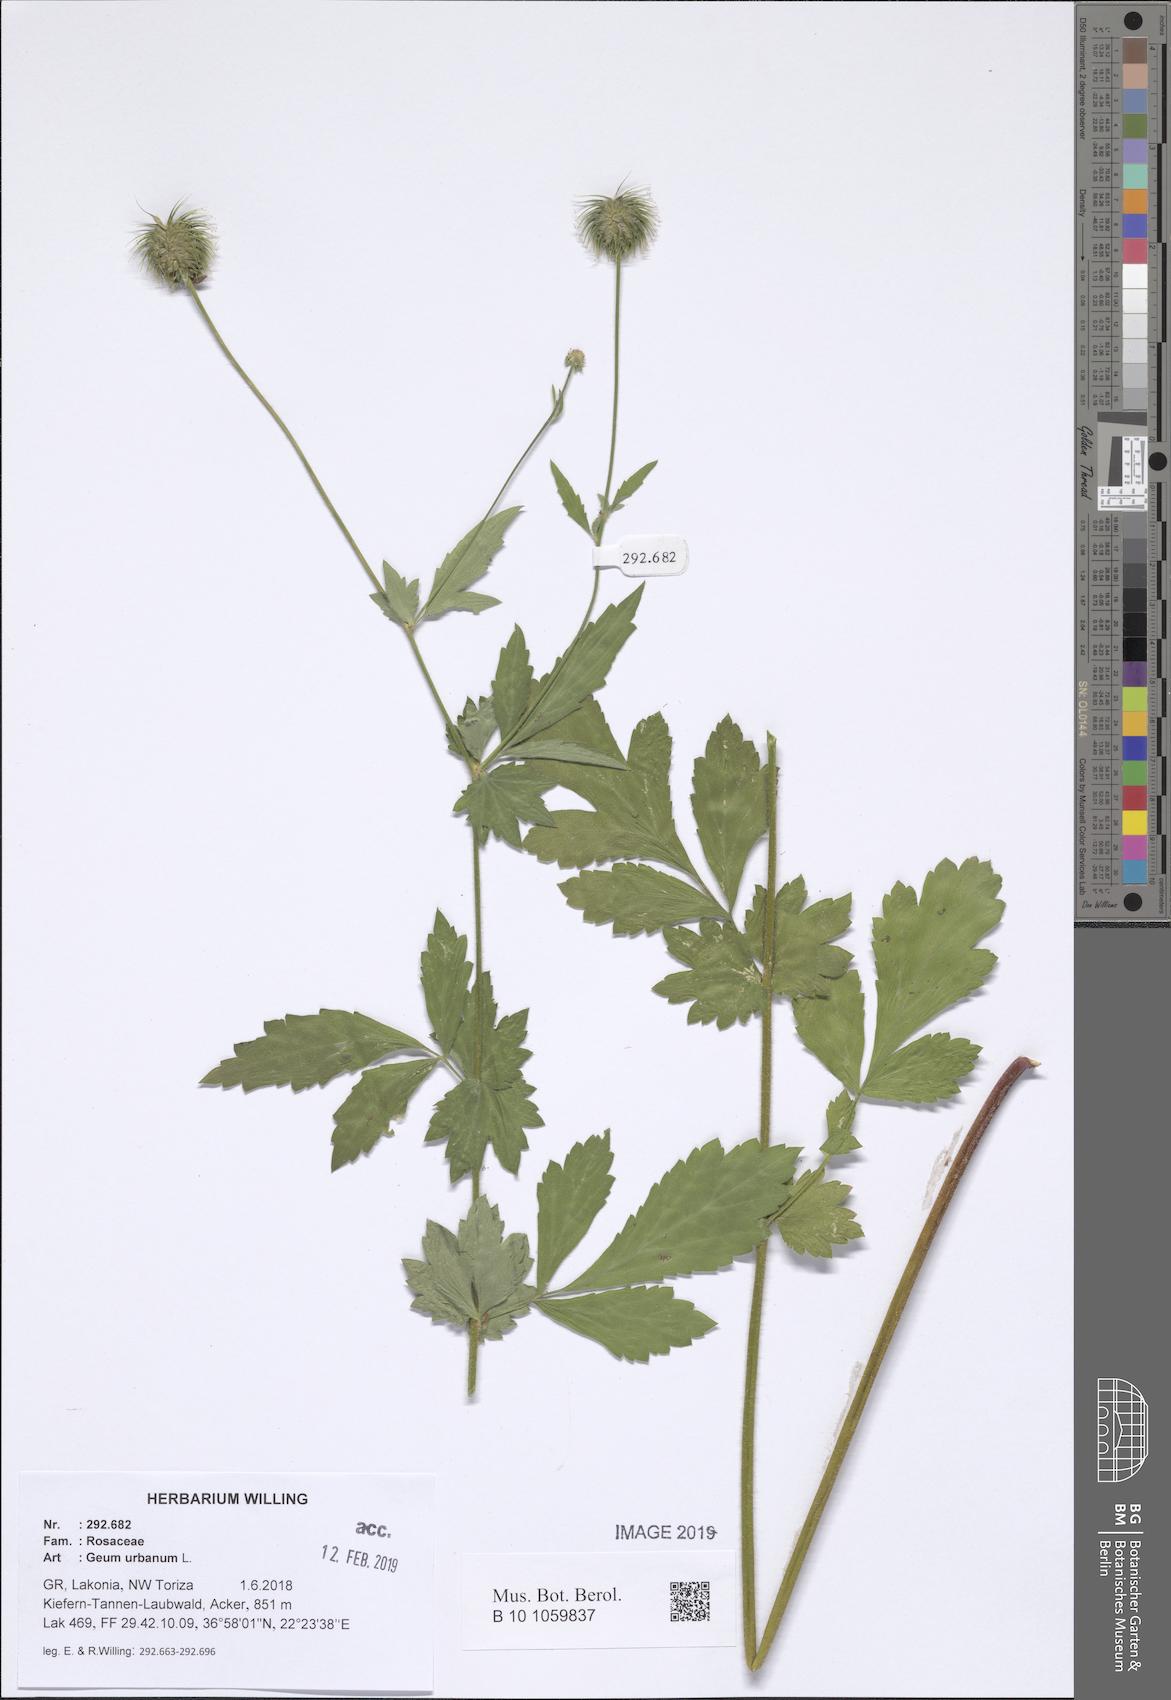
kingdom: Plantae
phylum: Tracheophyta
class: Magnoliopsida
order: Rosales
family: Rosaceae
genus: Geum
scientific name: Geum urbanum
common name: Wood avens
